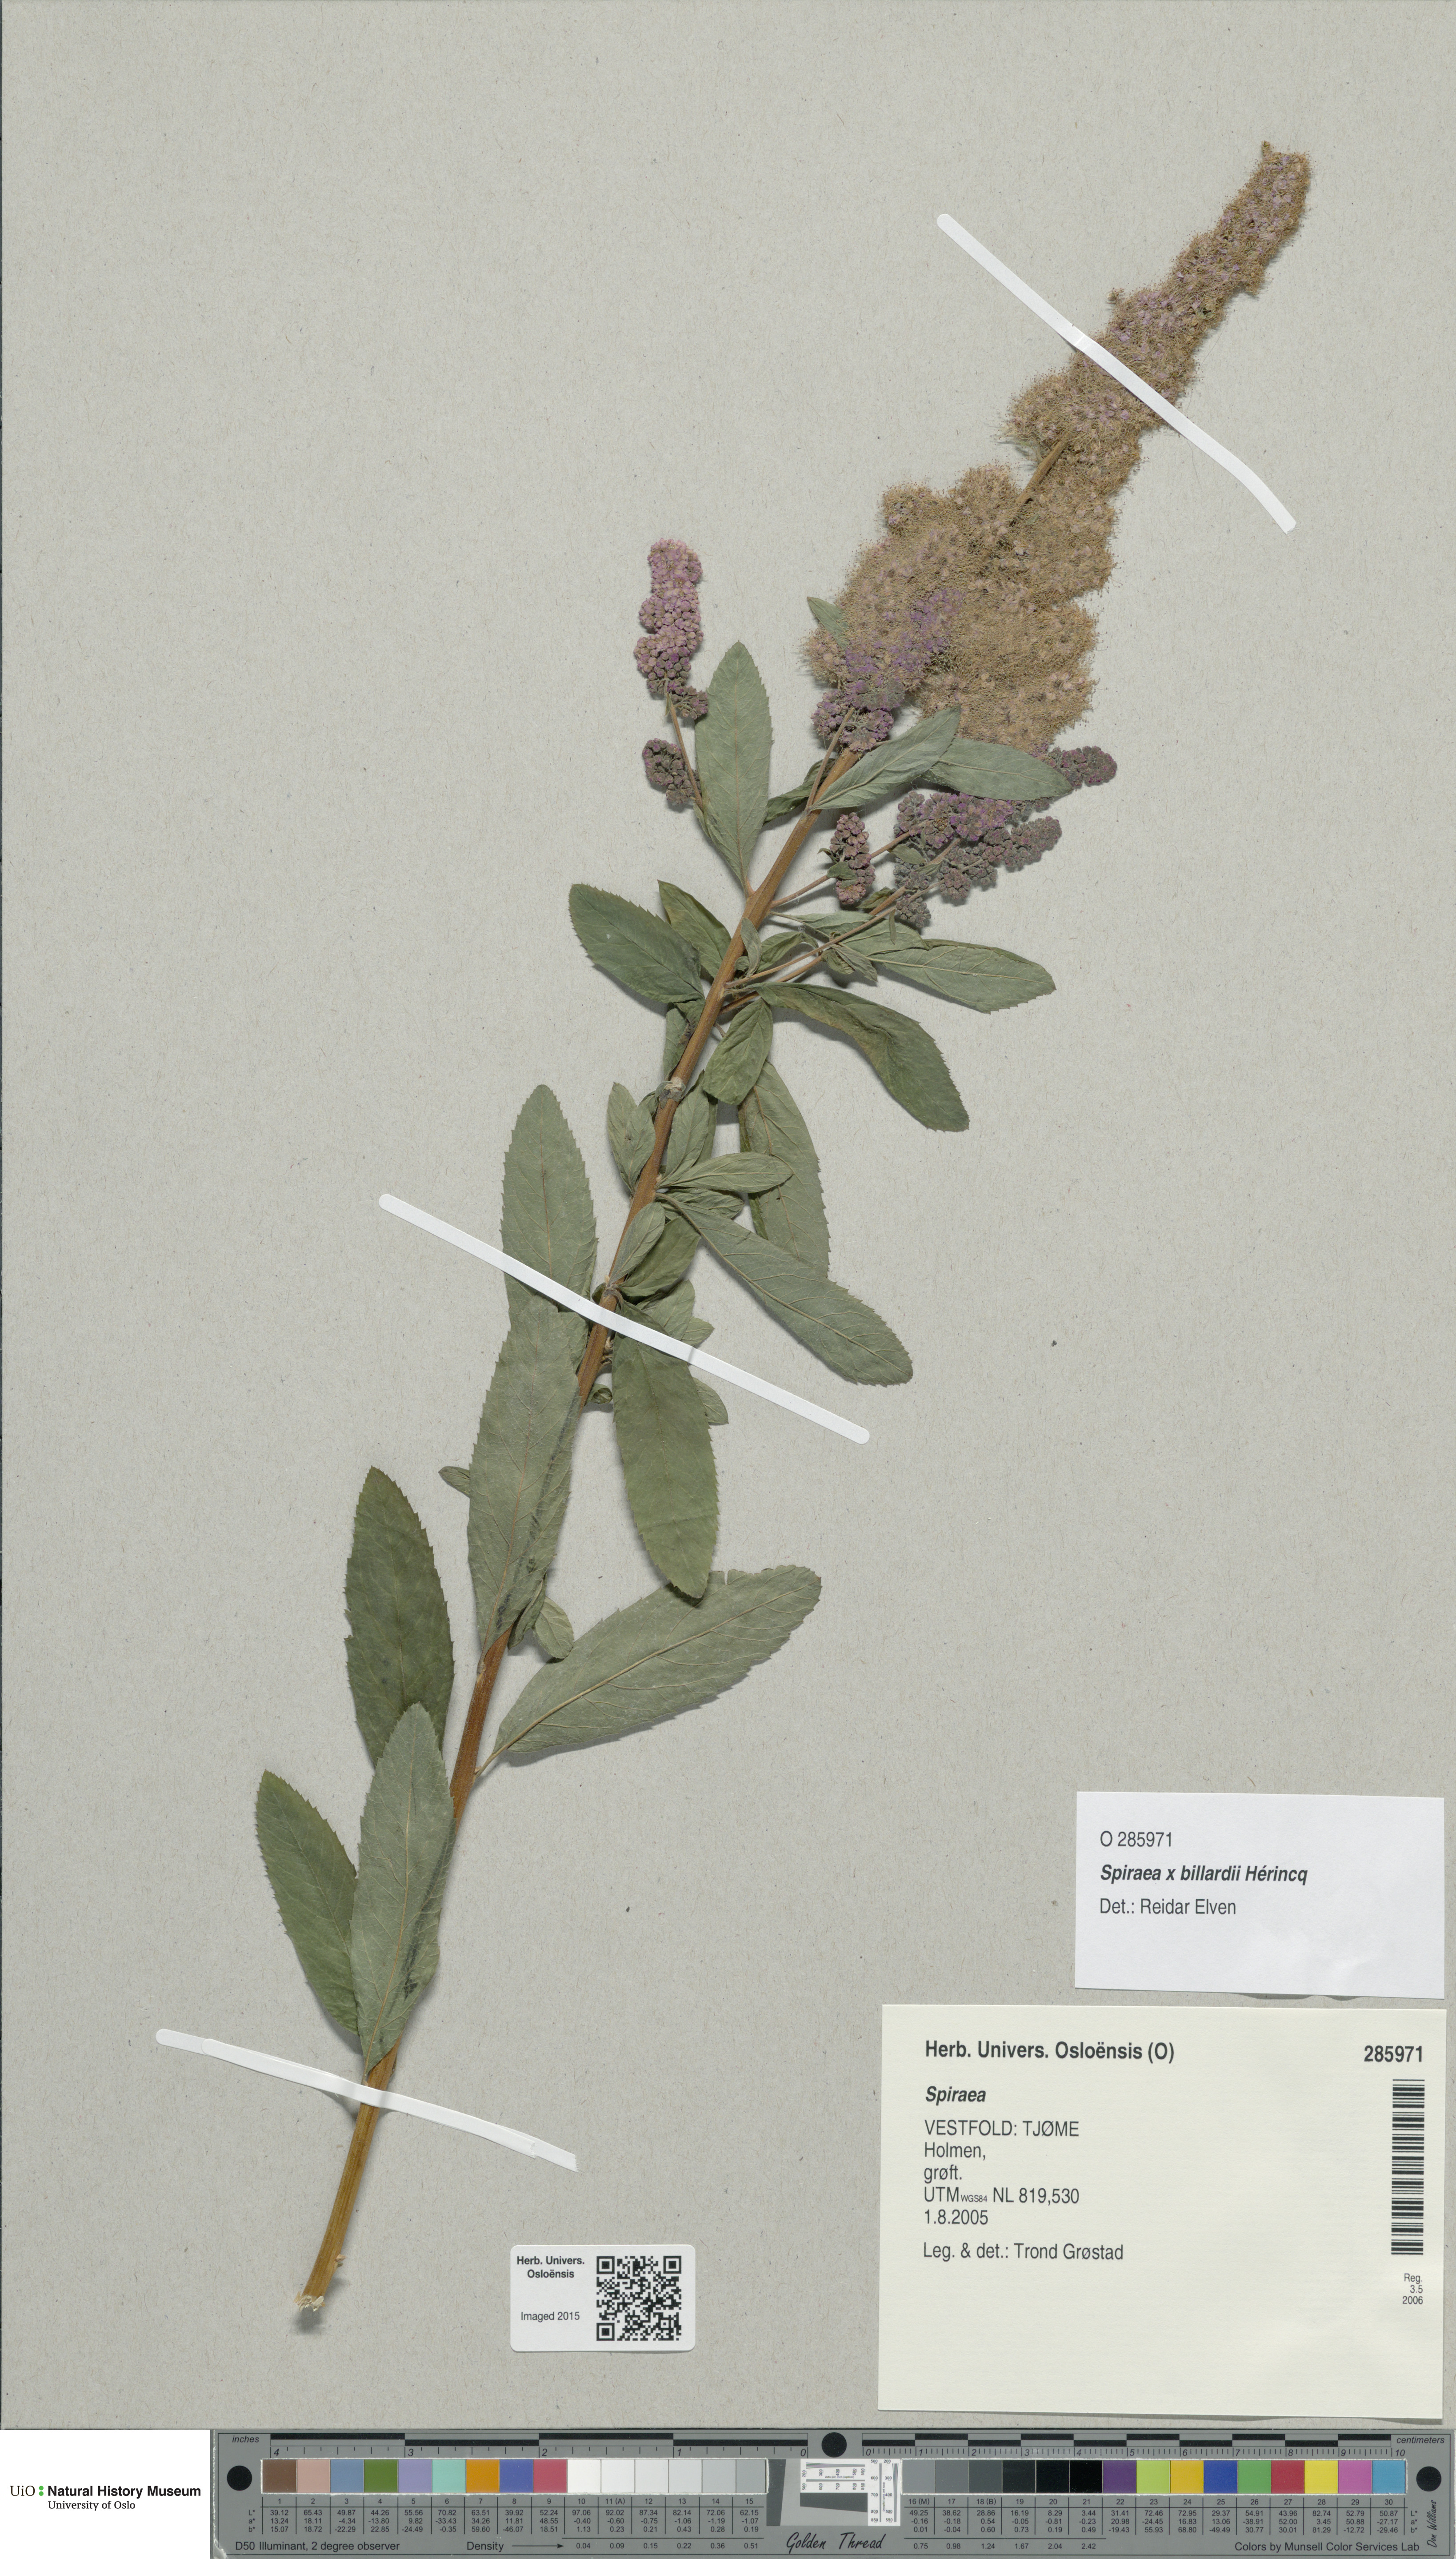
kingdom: Plantae
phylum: Tracheophyta
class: Magnoliopsida
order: Rosales
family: Rosaceae
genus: Spiraea
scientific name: Spiraea billardii
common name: Billard's bridewort
